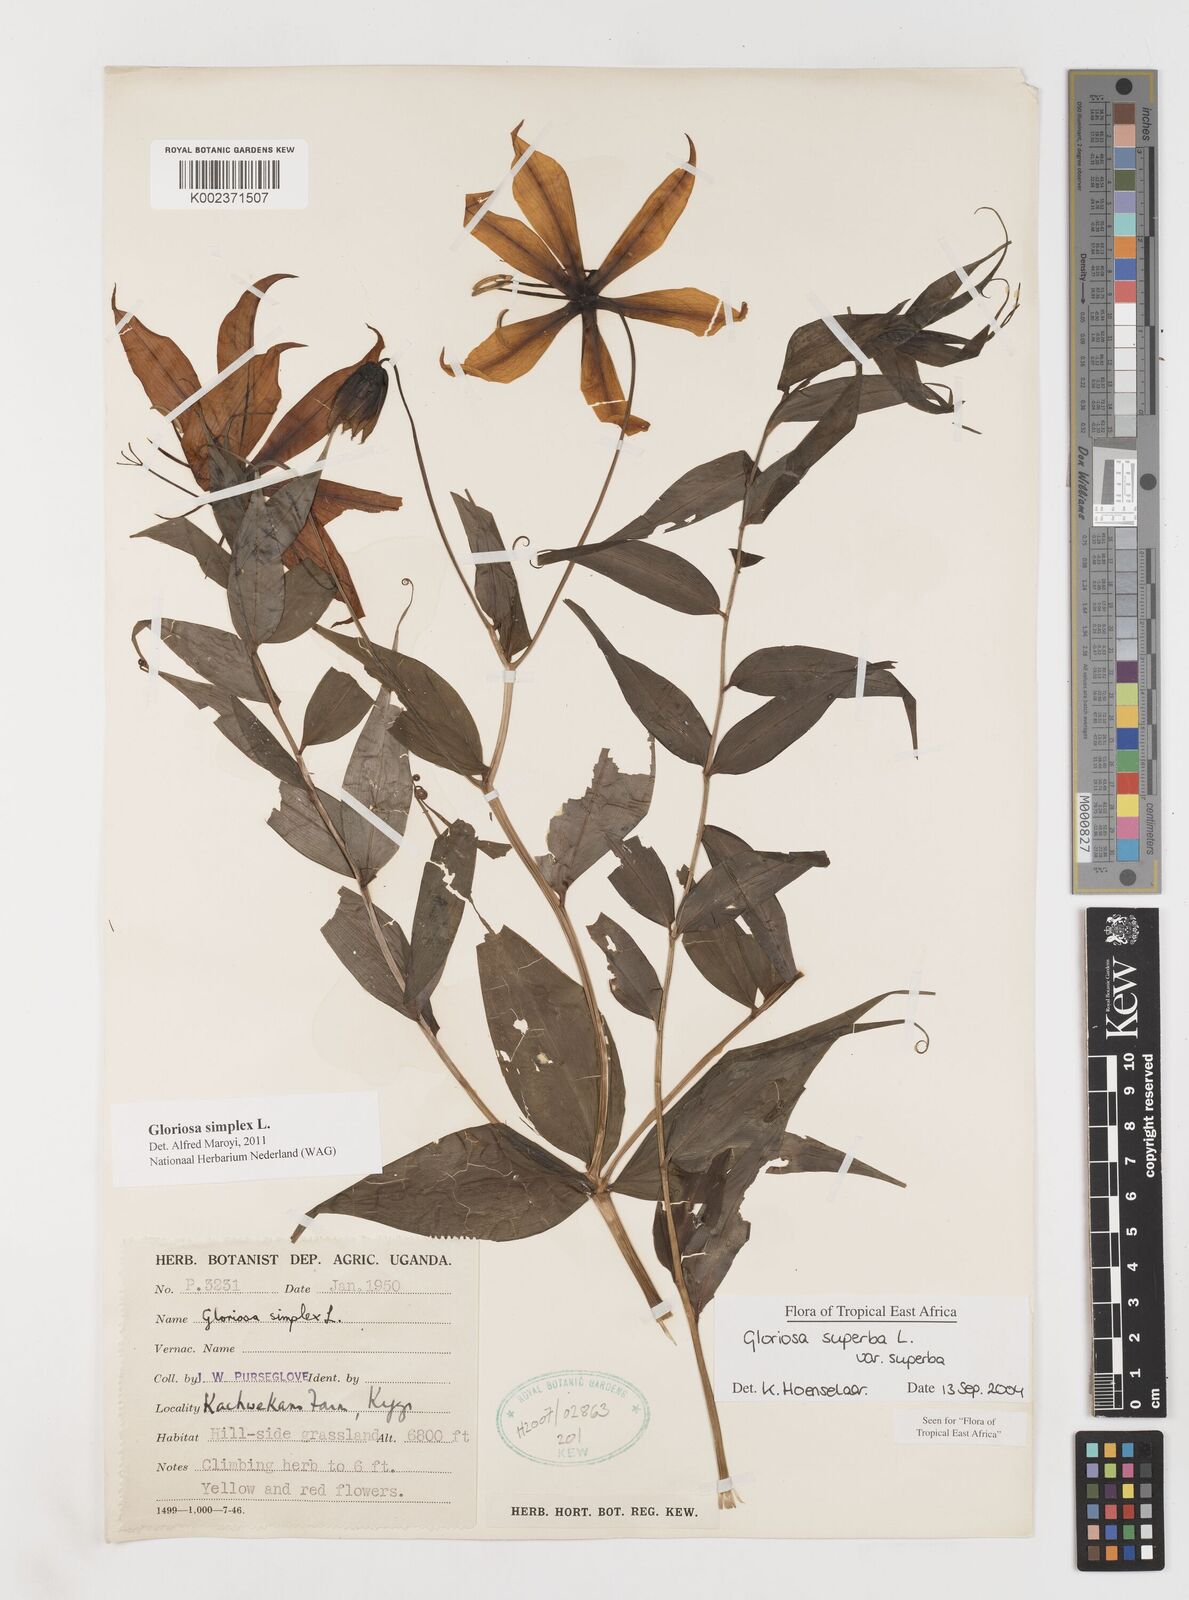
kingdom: Plantae
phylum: Tracheophyta
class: Liliopsida
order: Liliales
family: Colchicaceae
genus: Gloriosa
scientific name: Gloriosa simplex
